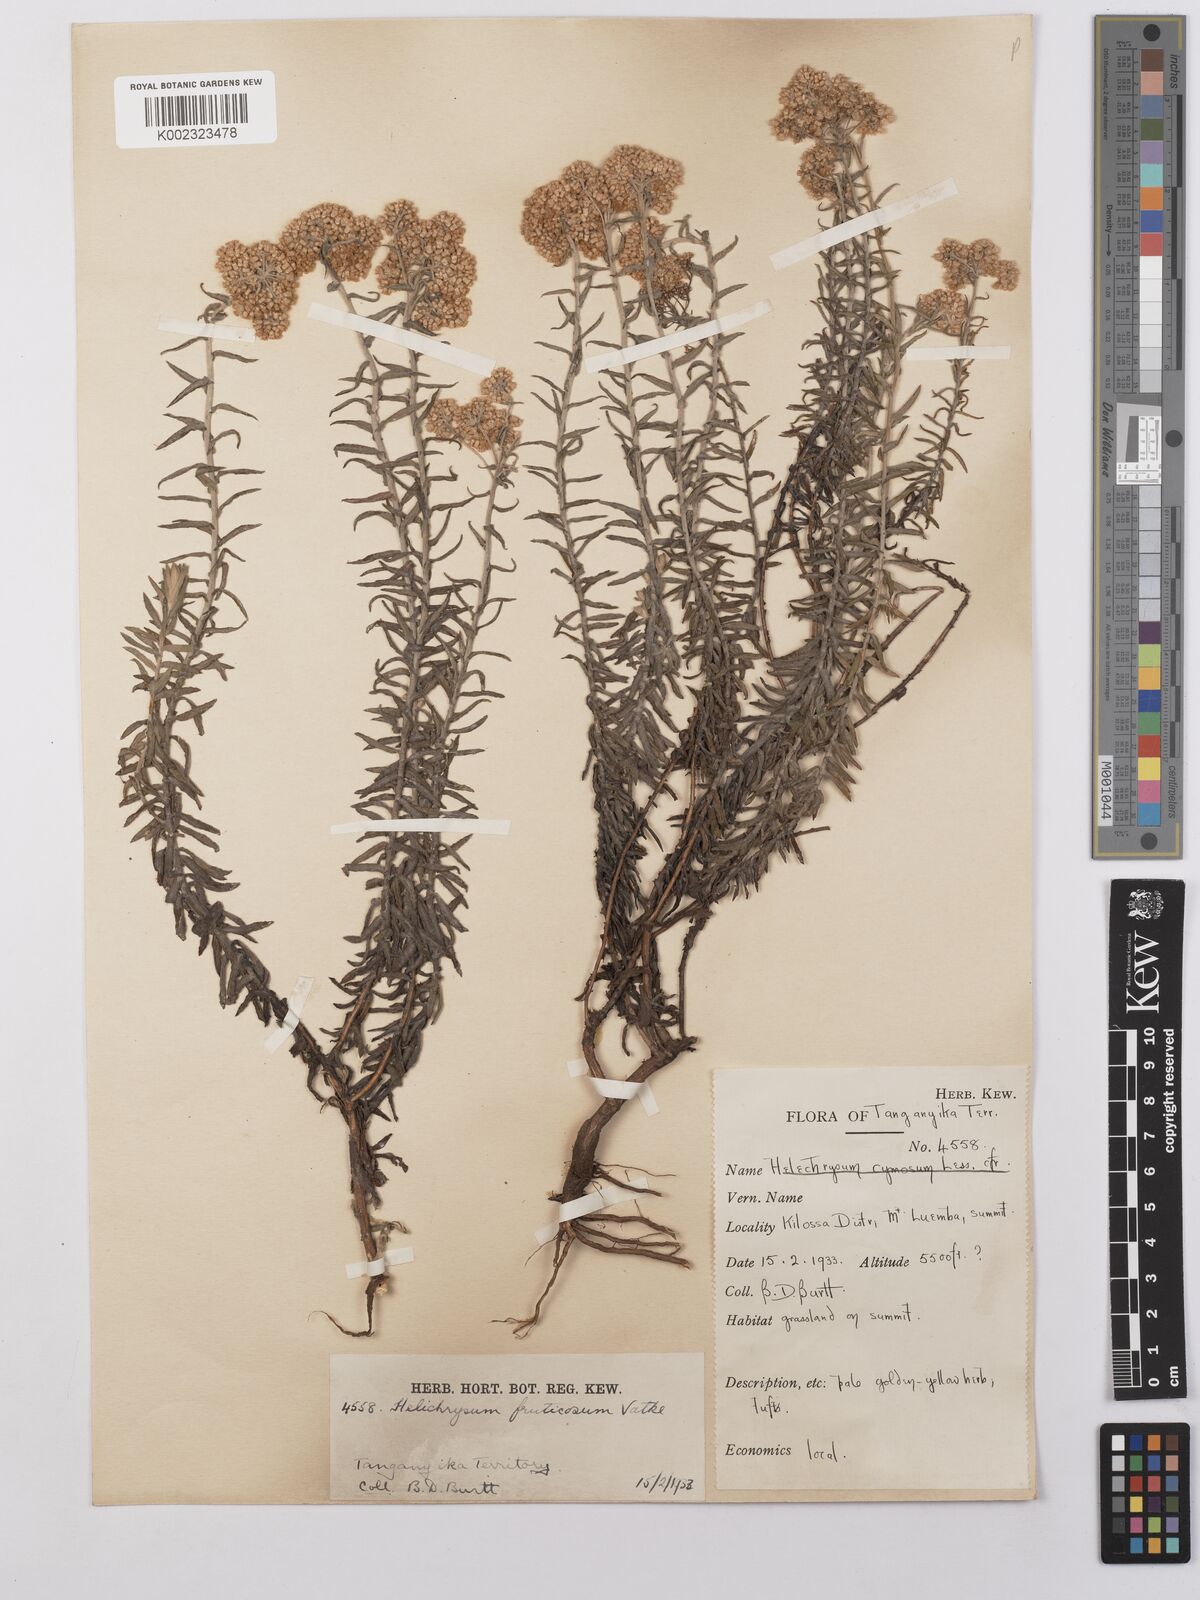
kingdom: Plantae
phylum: Tracheophyta
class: Magnoliopsida
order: Asterales
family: Asteraceae
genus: Helichrysum
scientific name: Helichrysum forskahlii
